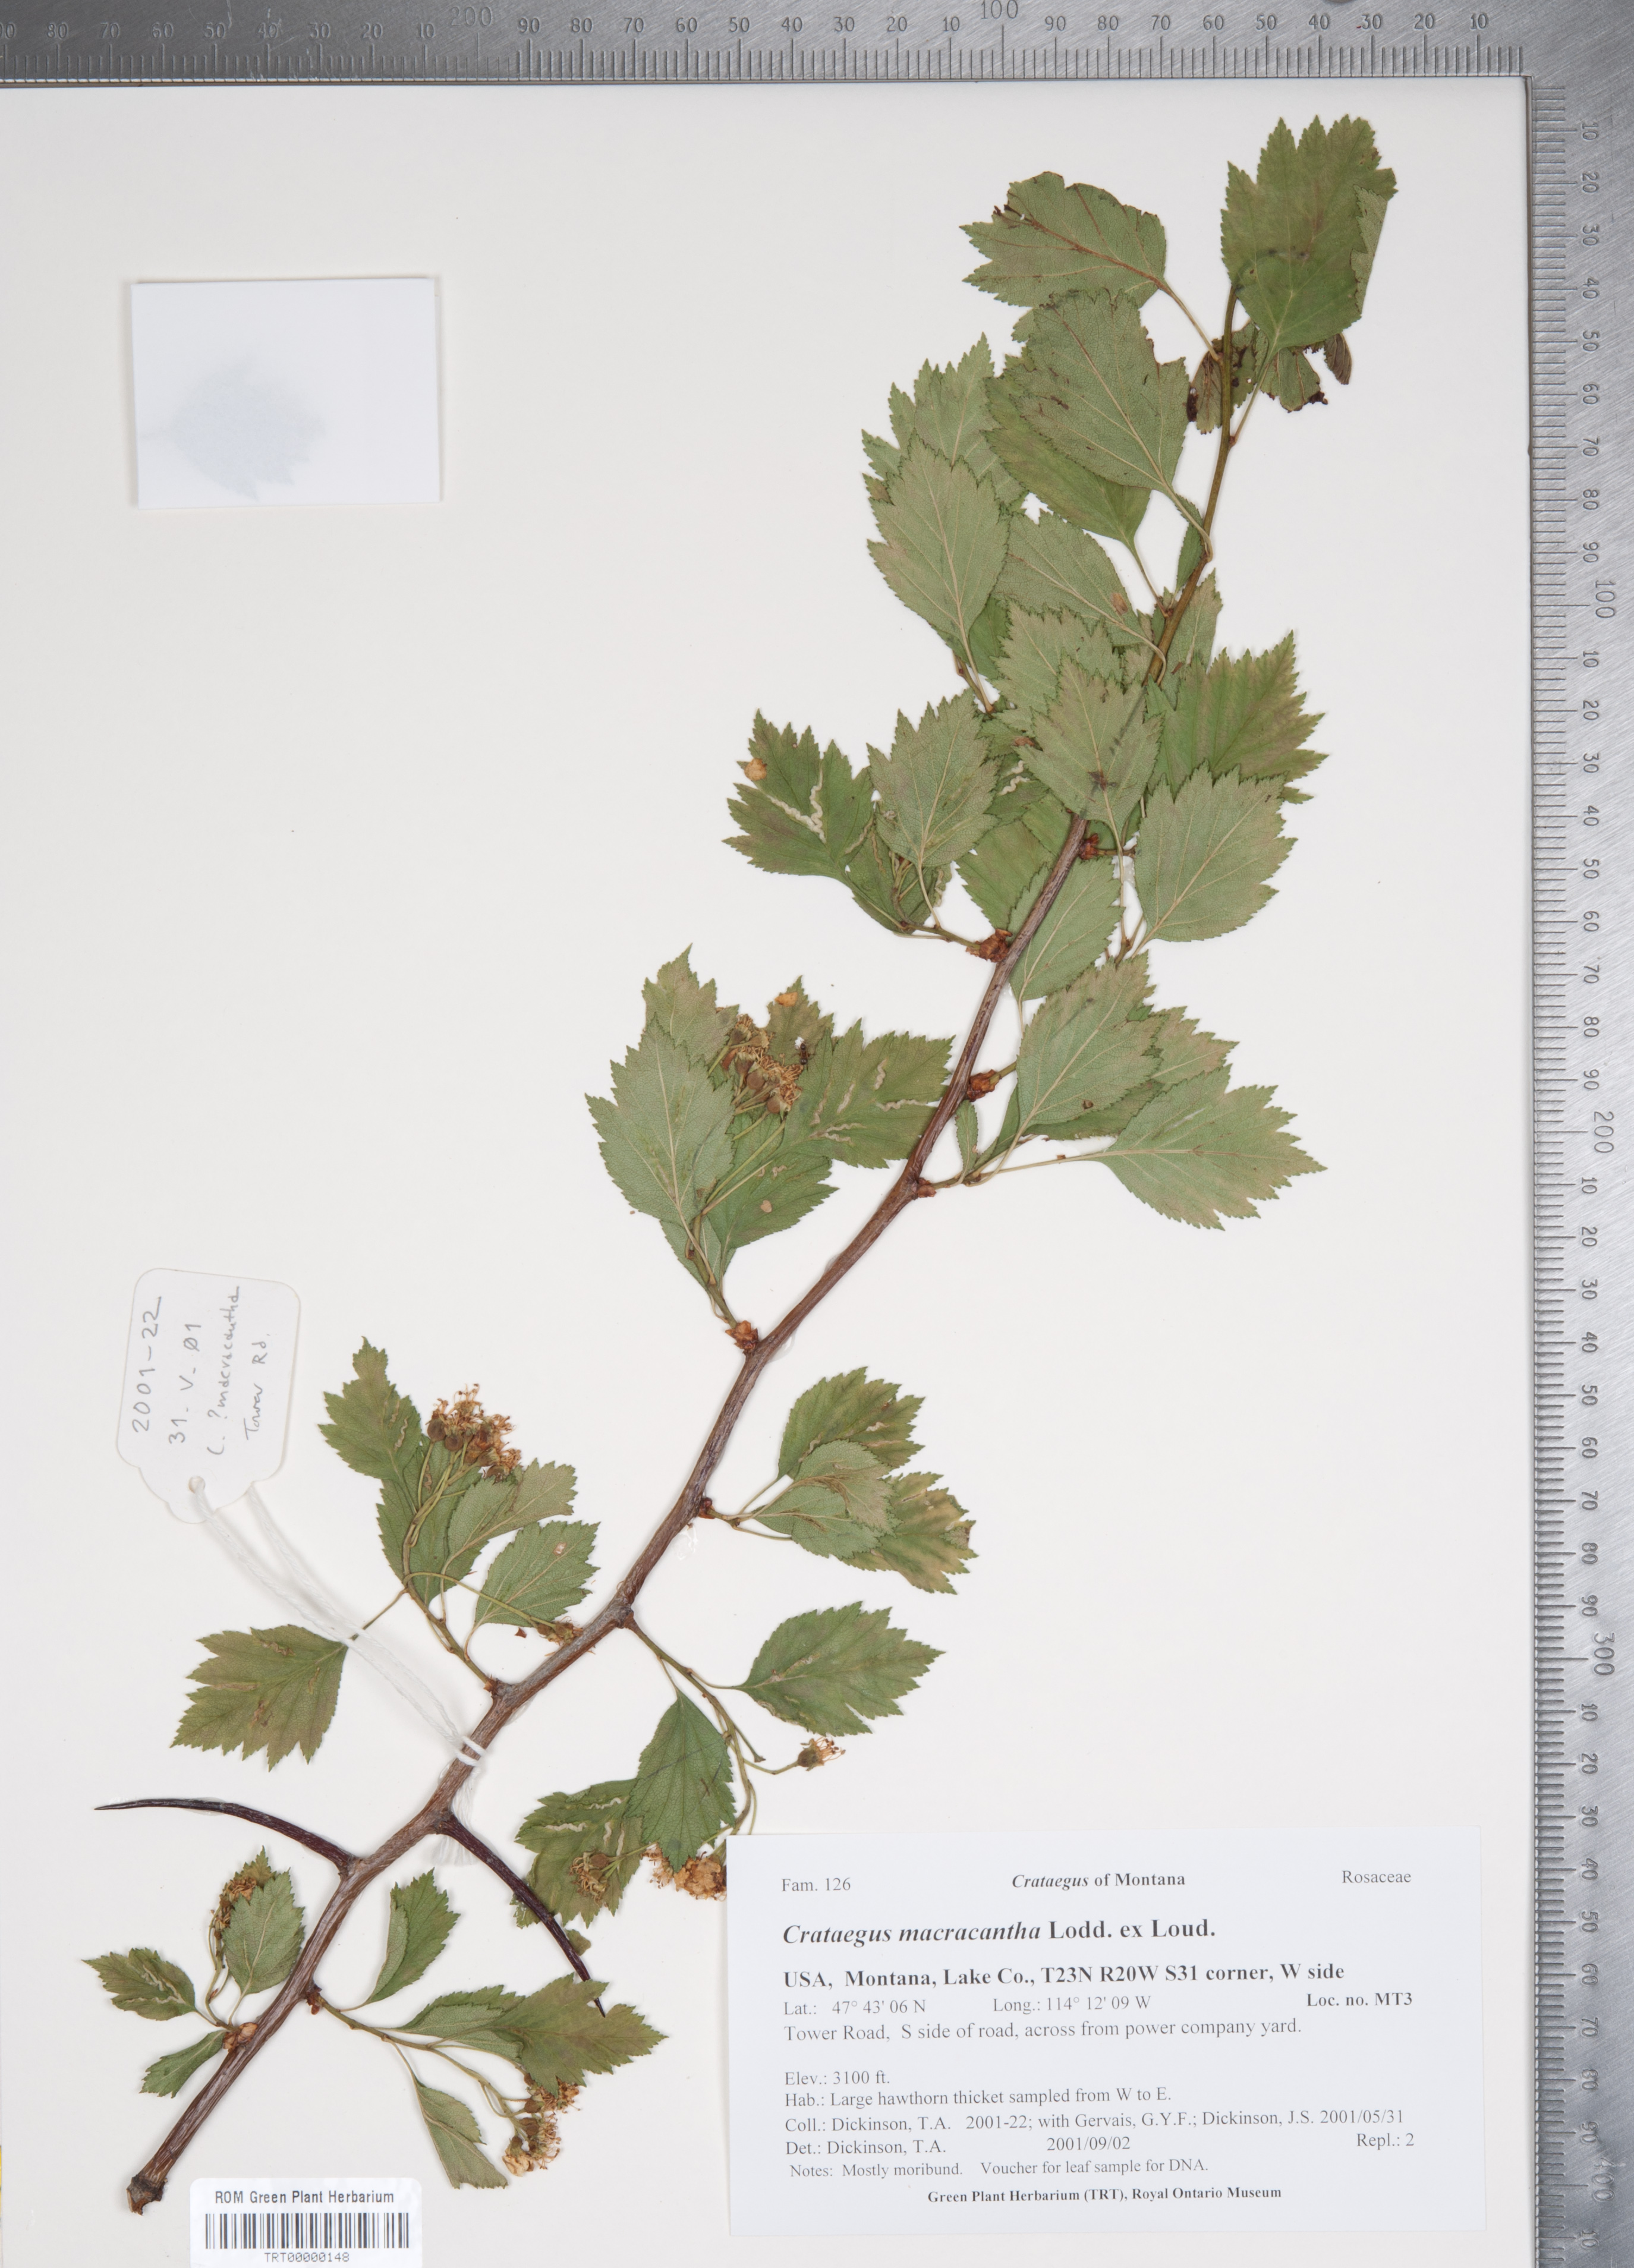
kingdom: Plantae
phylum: Tracheophyta
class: Magnoliopsida
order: Rosales
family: Rosaceae
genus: Crataegus
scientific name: Crataegus macracantha
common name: Large-thorn hawthorn
